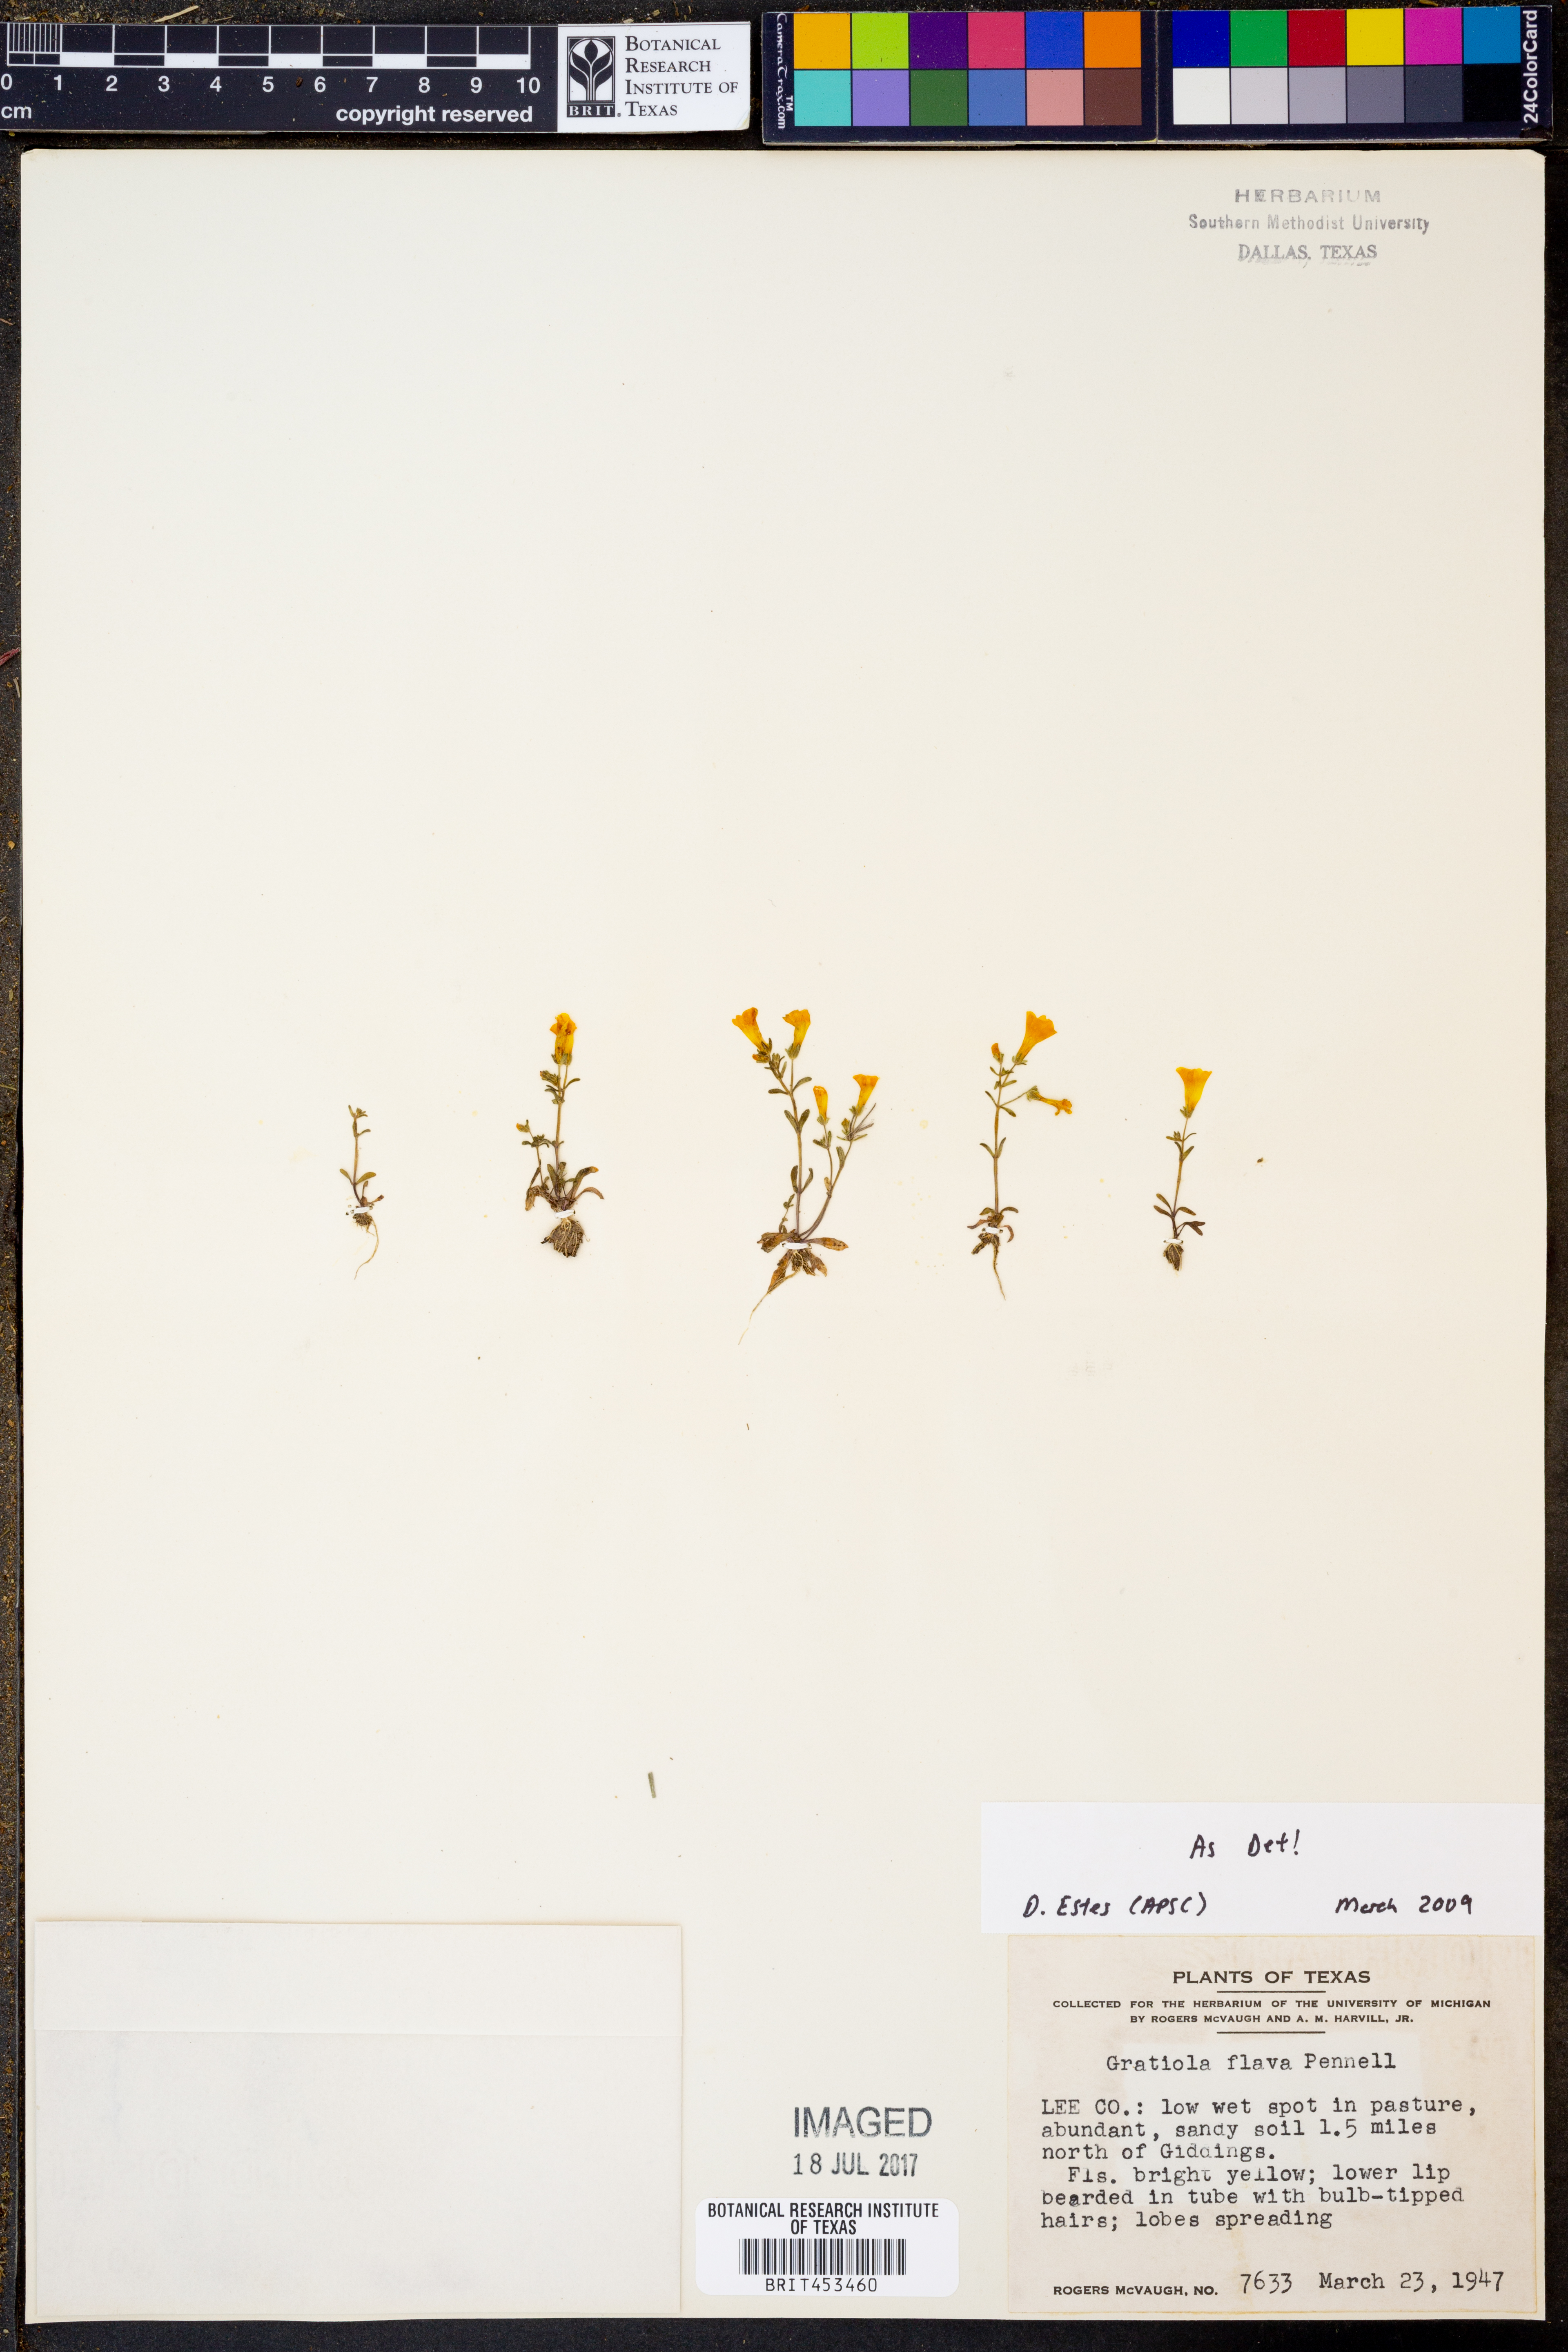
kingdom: Plantae
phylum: Tracheophyta
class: Magnoliopsida
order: Lamiales
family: Plantaginaceae
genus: Gratiola
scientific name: Gratiola flava
